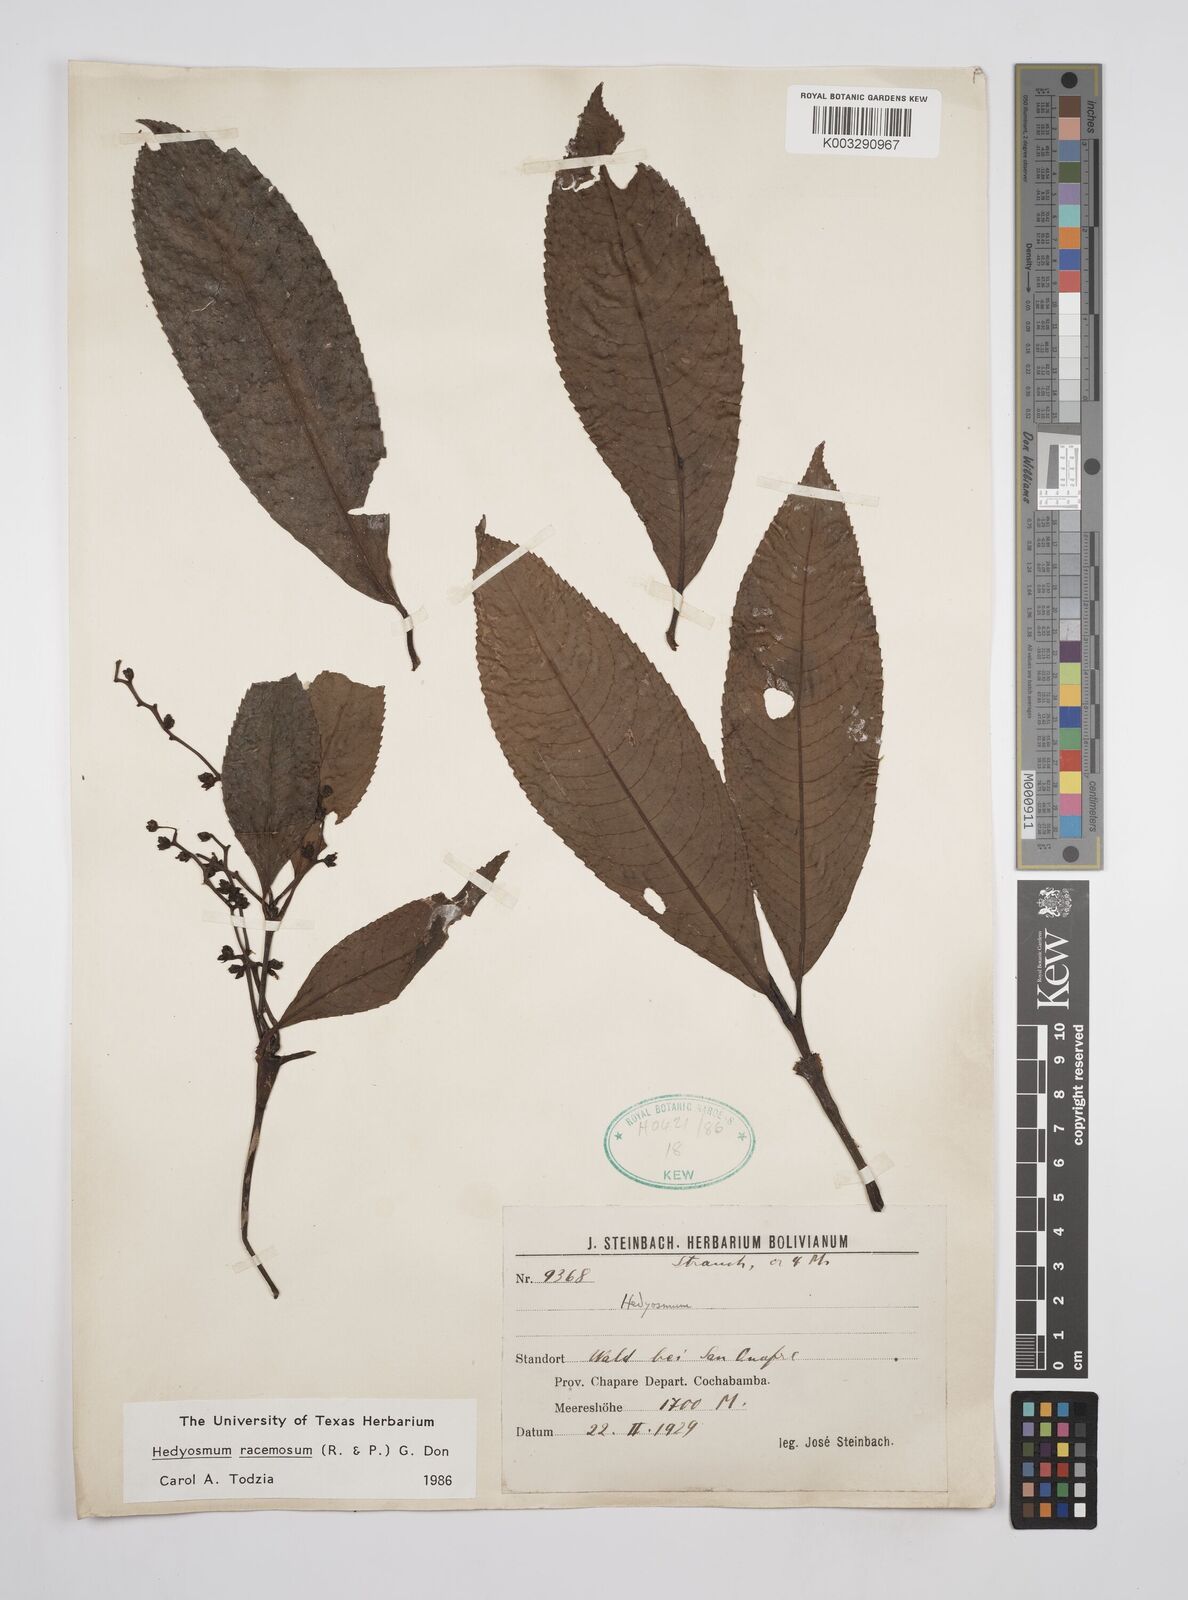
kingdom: Plantae
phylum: Tracheophyta
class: Magnoliopsida
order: Chloranthales
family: Chloranthaceae
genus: Hedyosmum
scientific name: Hedyosmum racemosum
